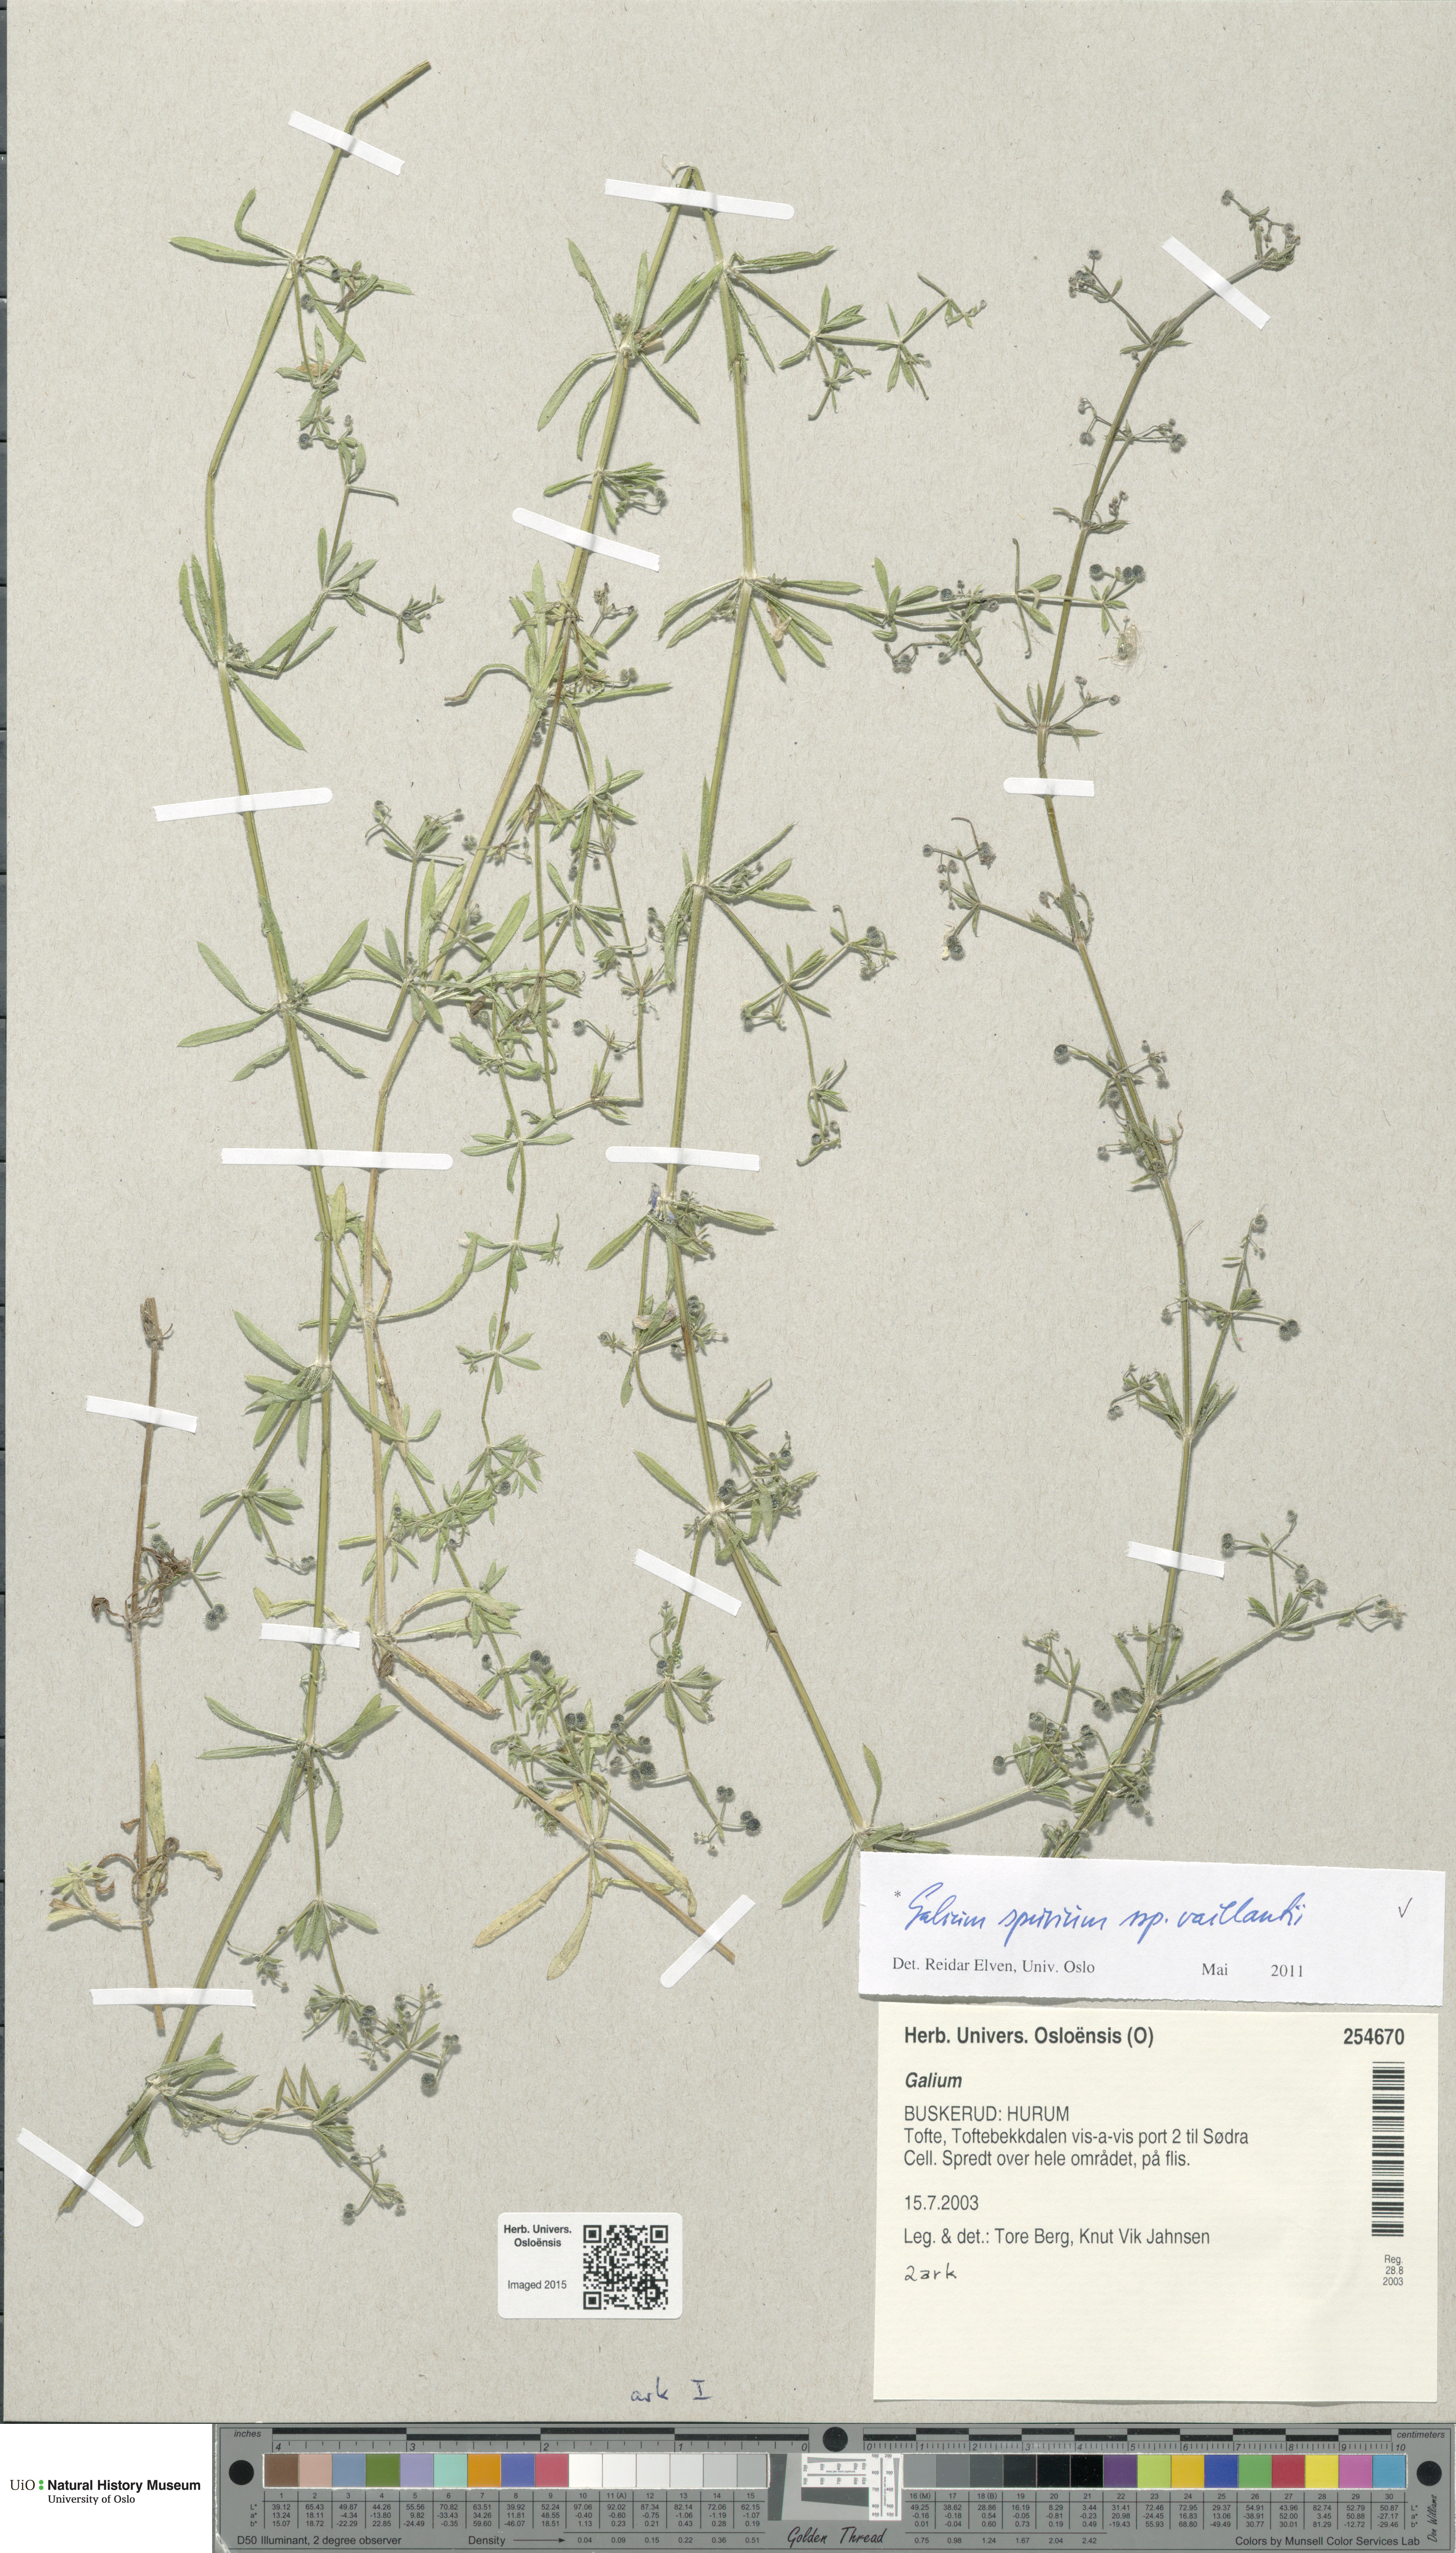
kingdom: Plantae
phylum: Tracheophyta
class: Magnoliopsida
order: Gentianales
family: Rubiaceae
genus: Galium
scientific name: Galium spurium
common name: False cleavers
